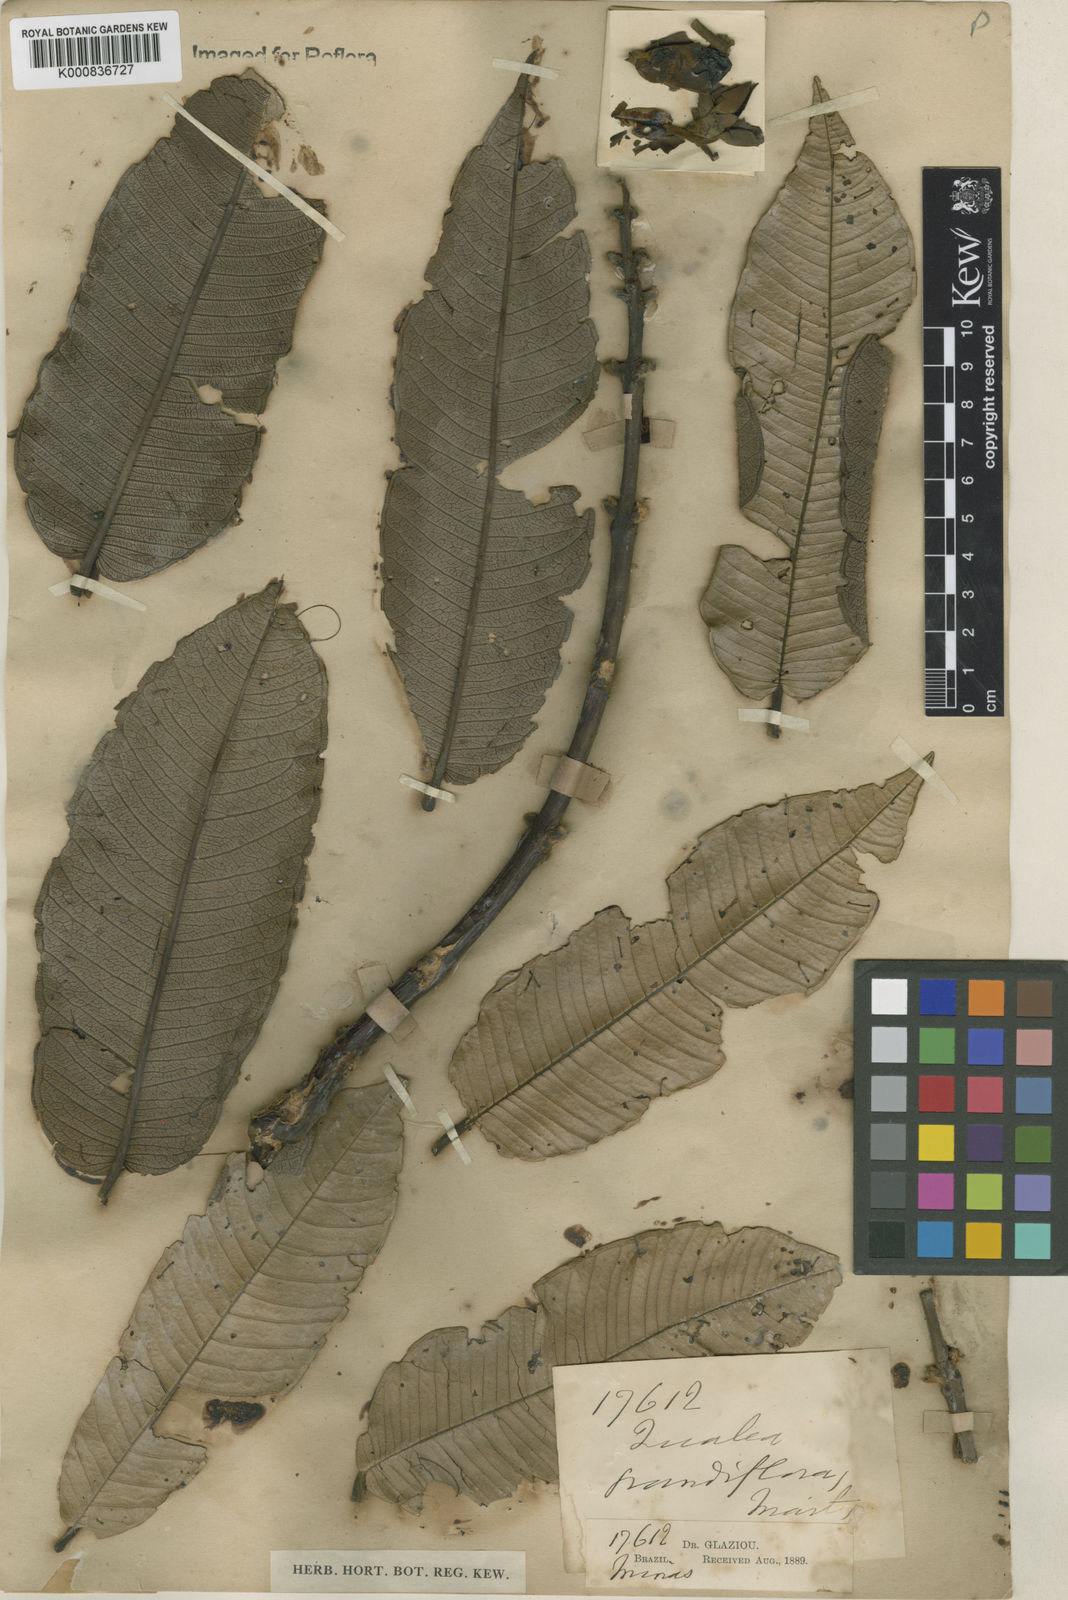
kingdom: Plantae
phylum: Tracheophyta
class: Magnoliopsida
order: Myrtales
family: Vochysiaceae
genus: Qualea
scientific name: Qualea grandiflora
